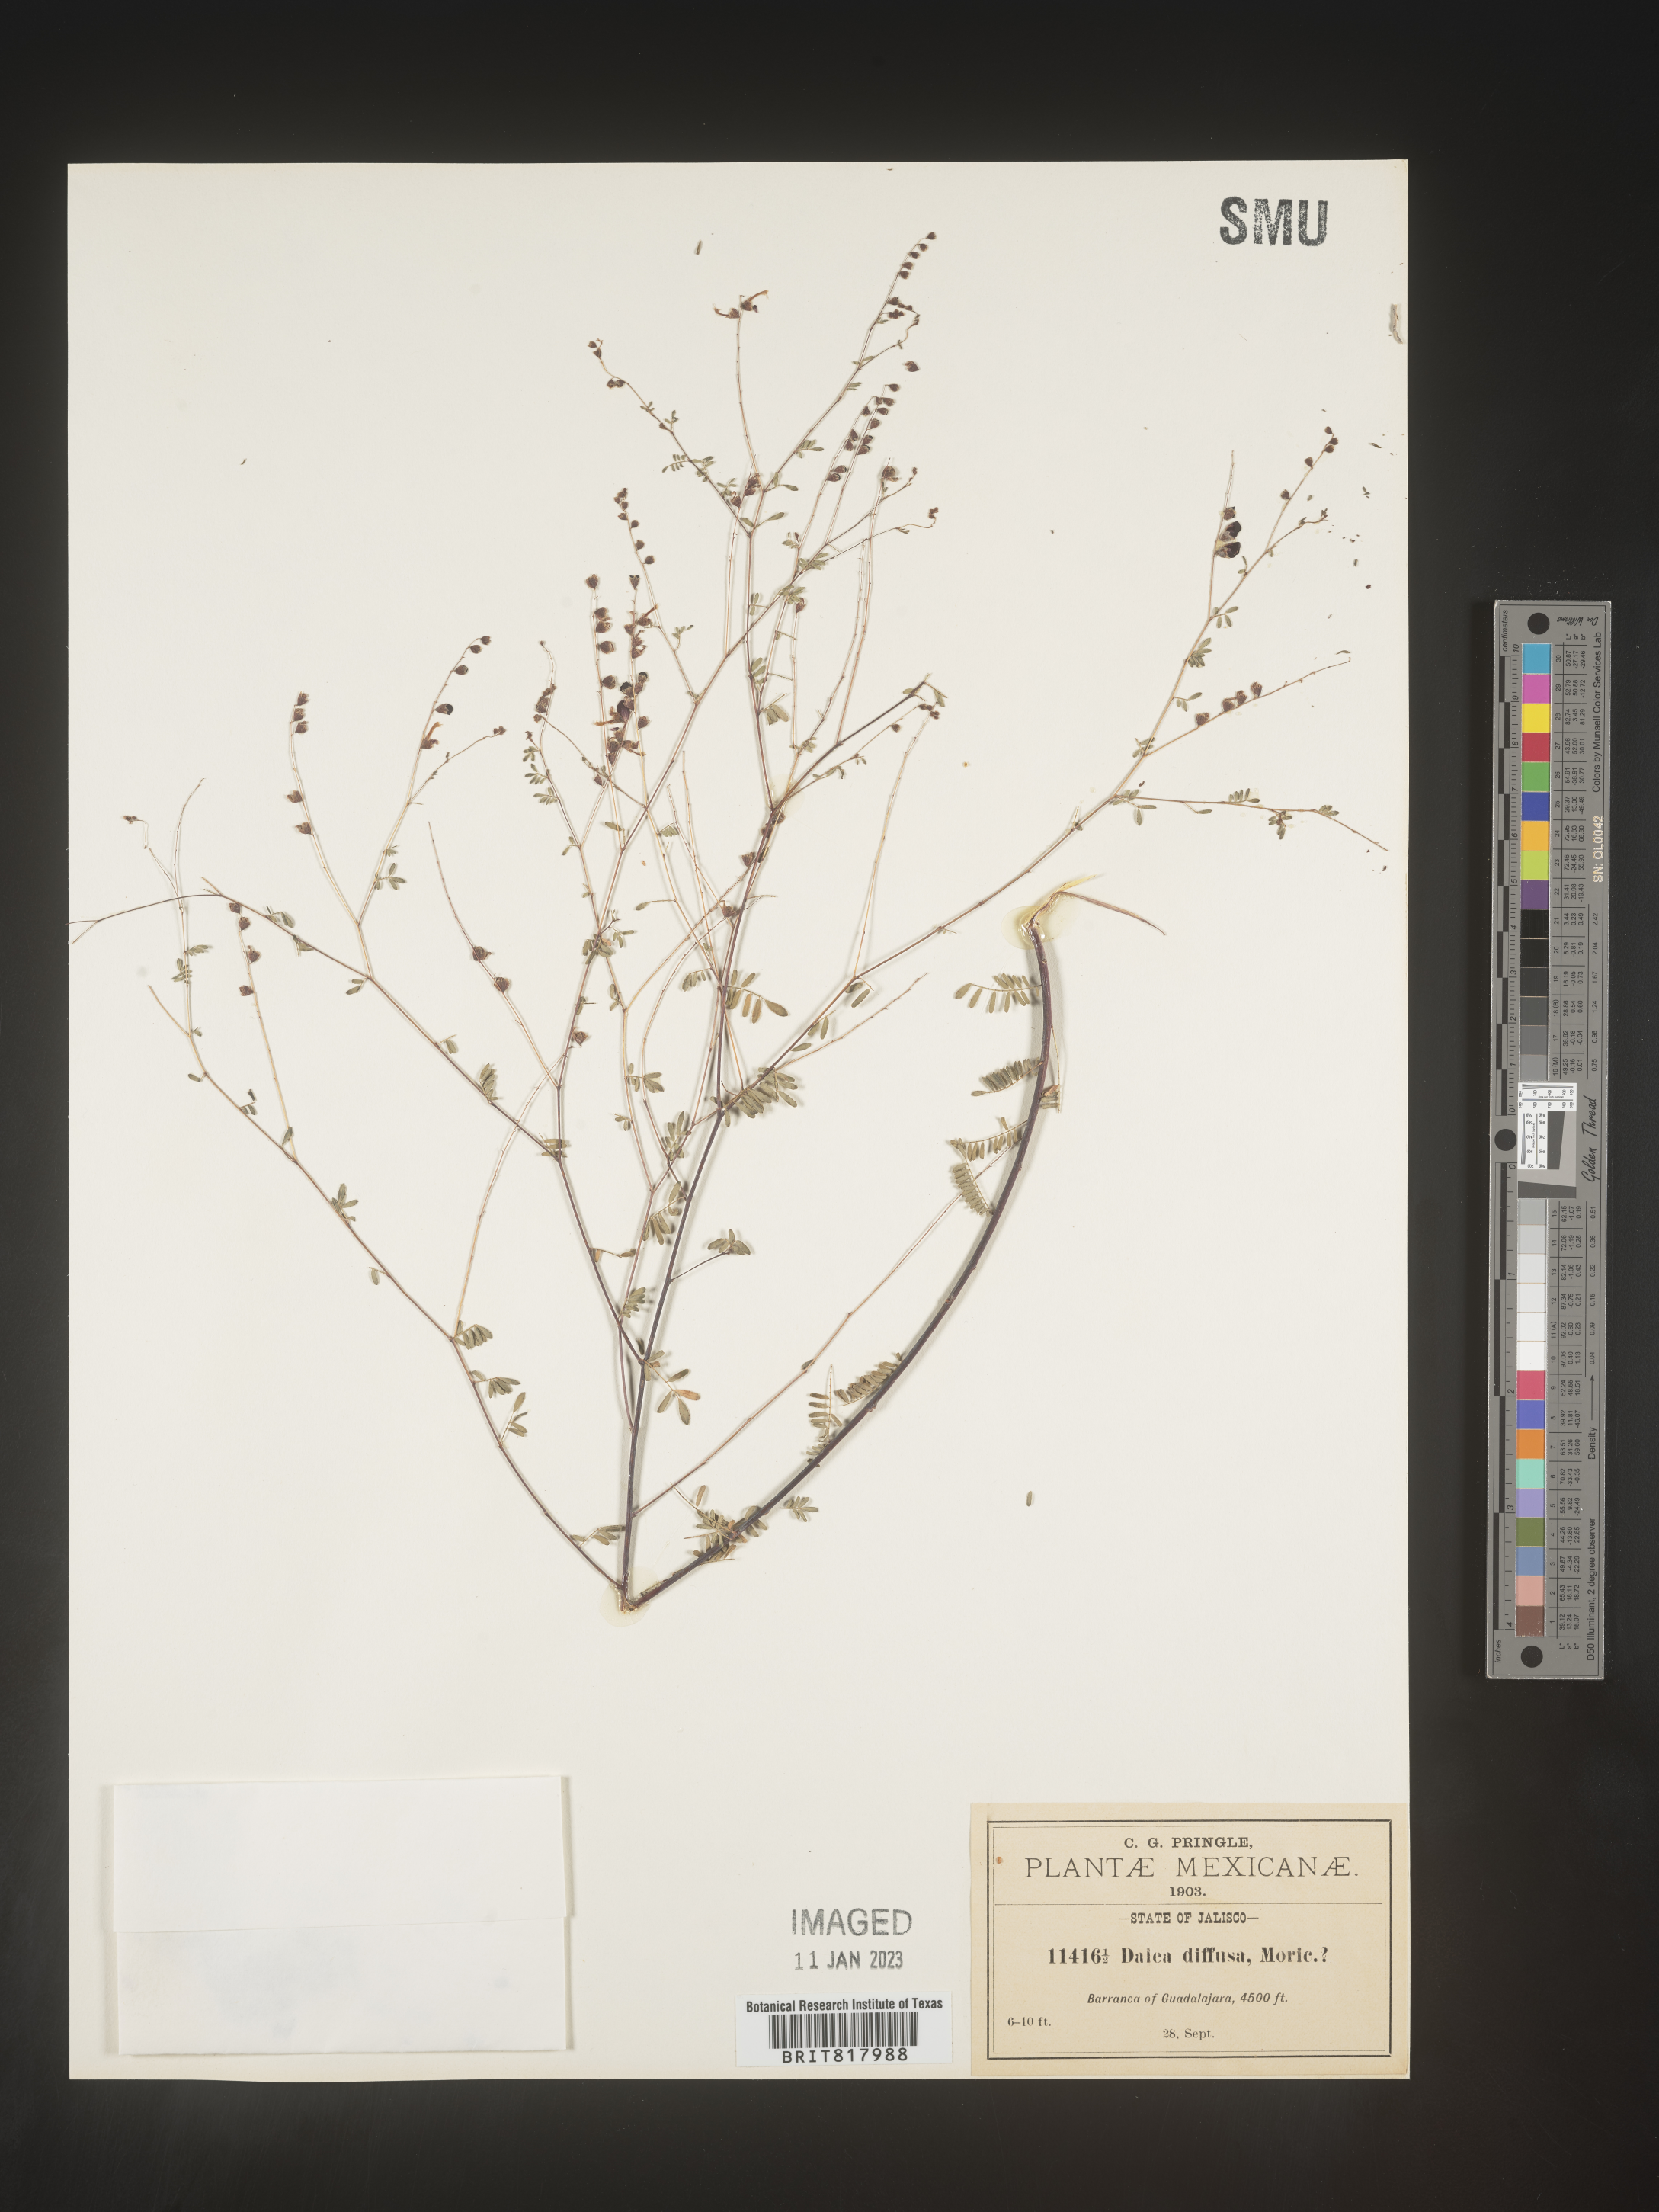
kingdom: Plantae
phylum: Tracheophyta
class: Magnoliopsida
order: Fabales
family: Fabaceae
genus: Dalea
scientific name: Dalea
